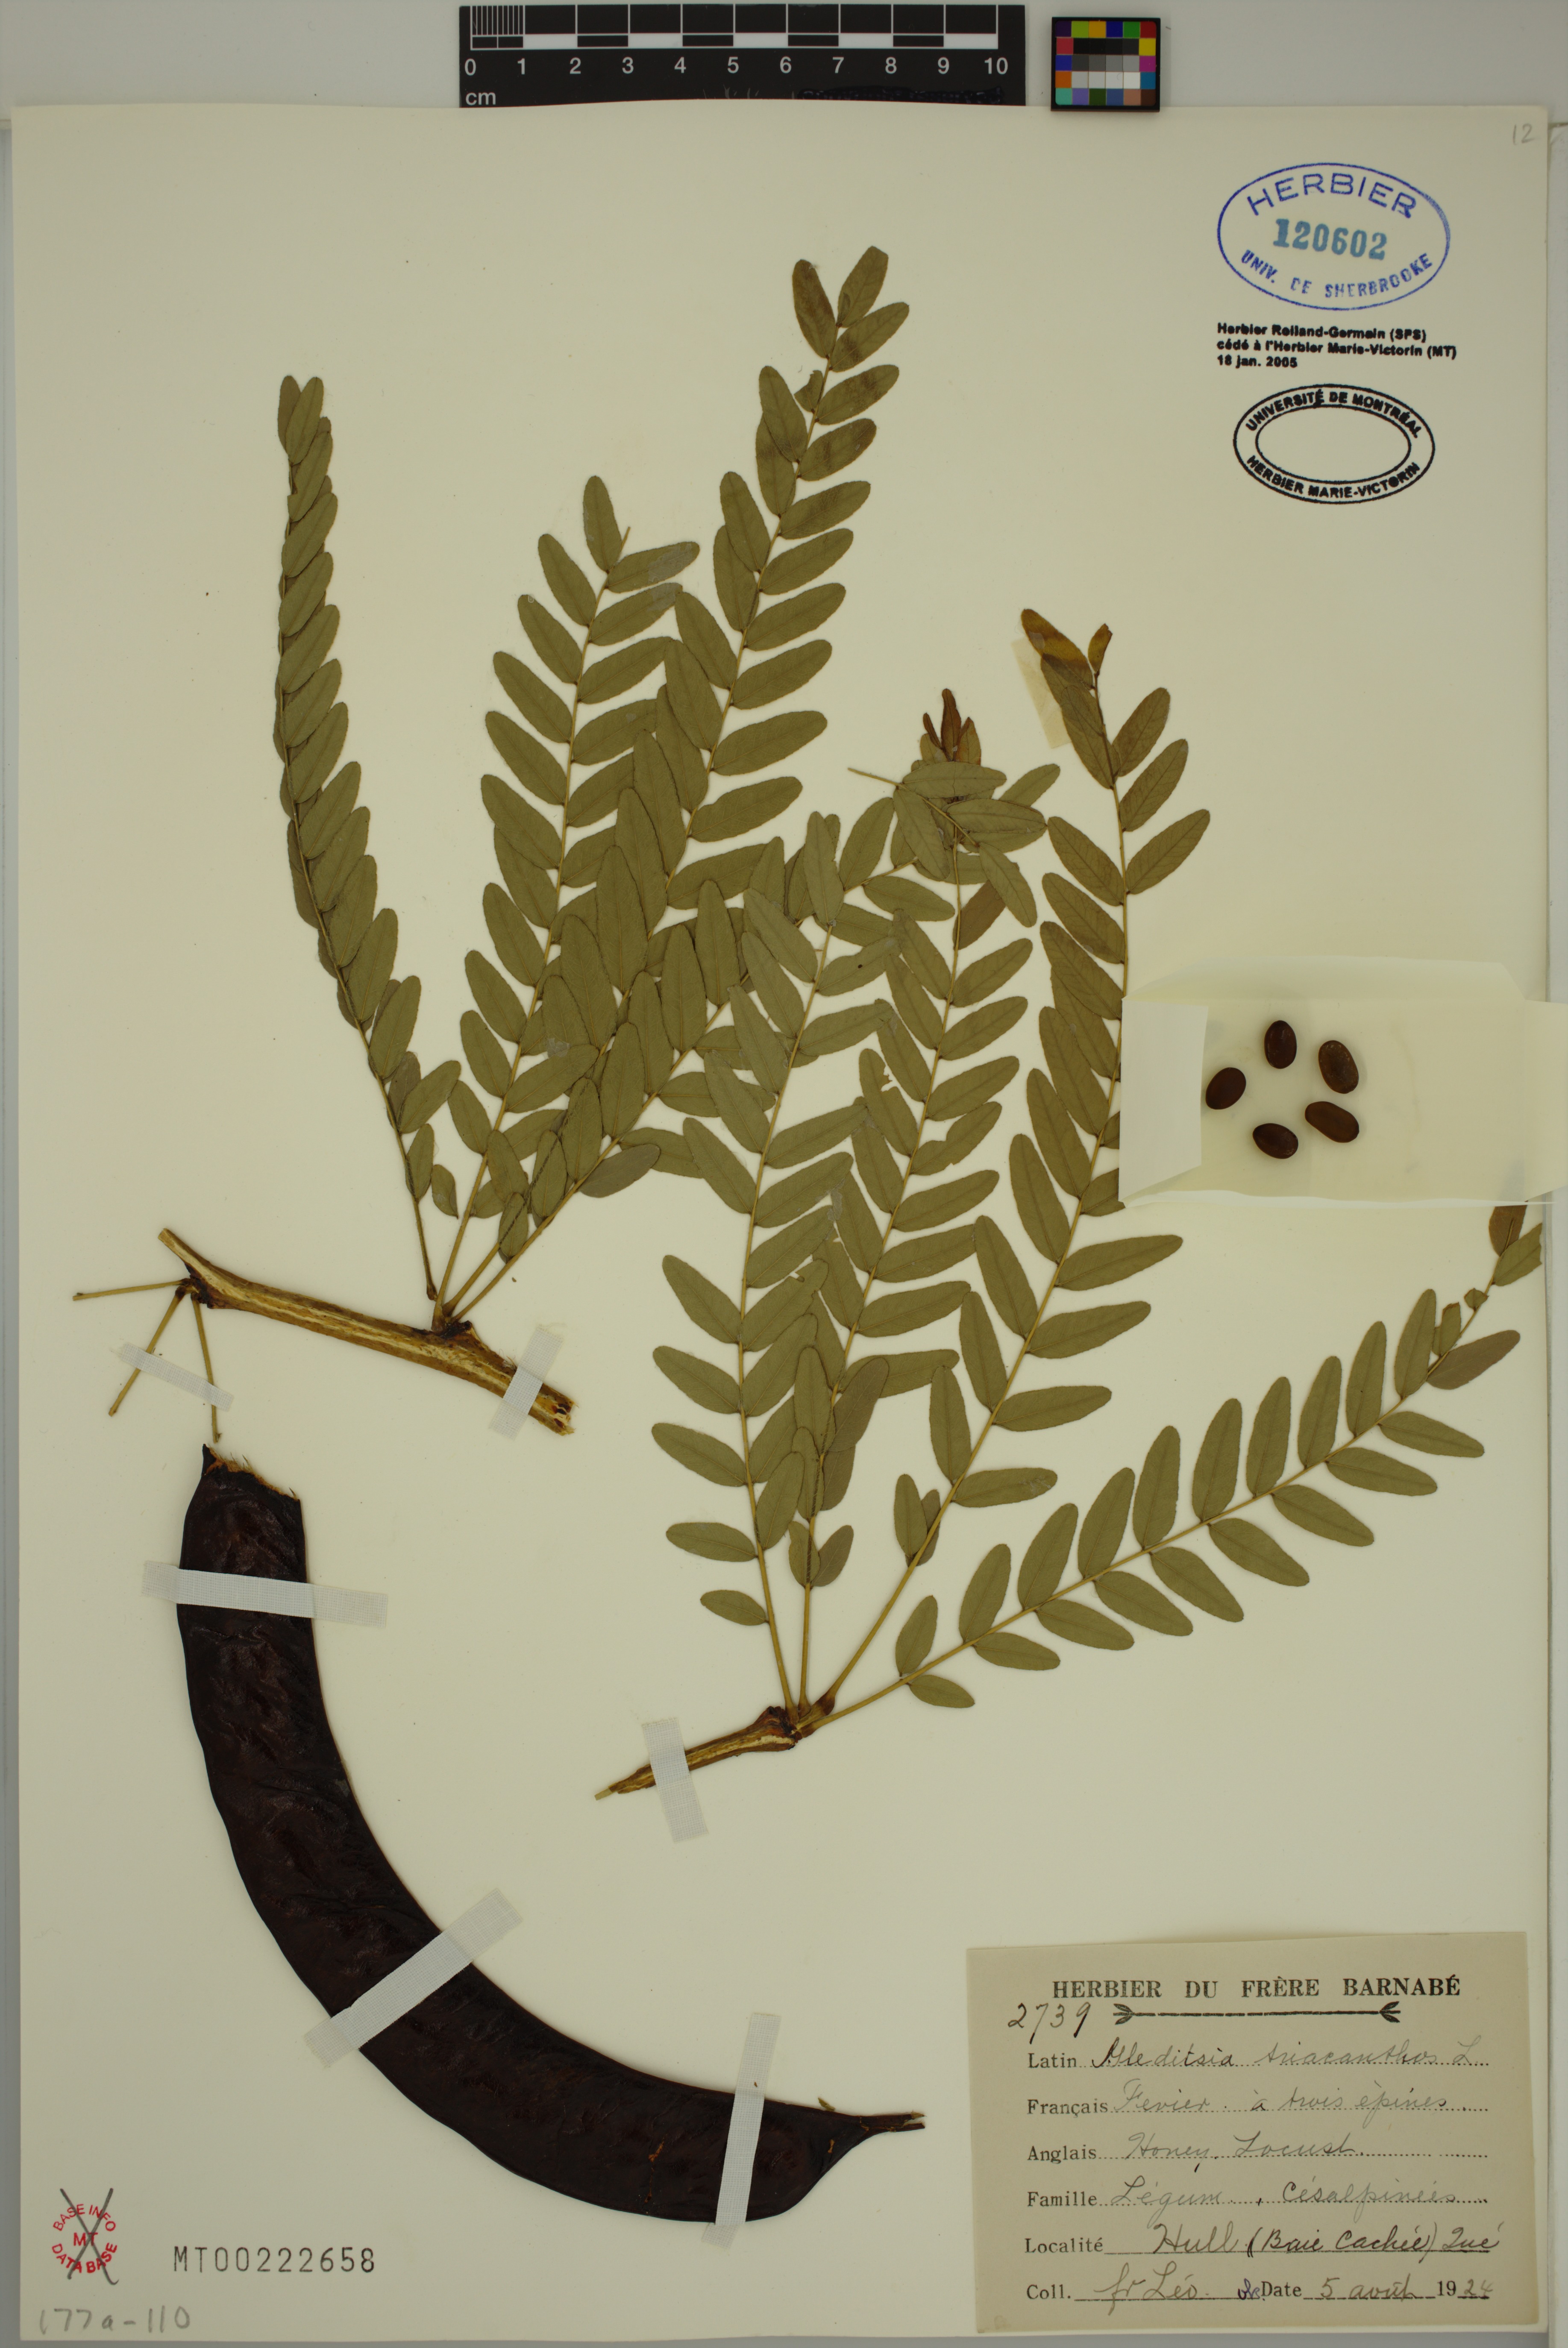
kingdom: Plantae
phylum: Tracheophyta
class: Magnoliopsida
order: Fabales
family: Fabaceae
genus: Gleditsia
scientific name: Gleditsia triacanthos
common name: Common honeylocust
